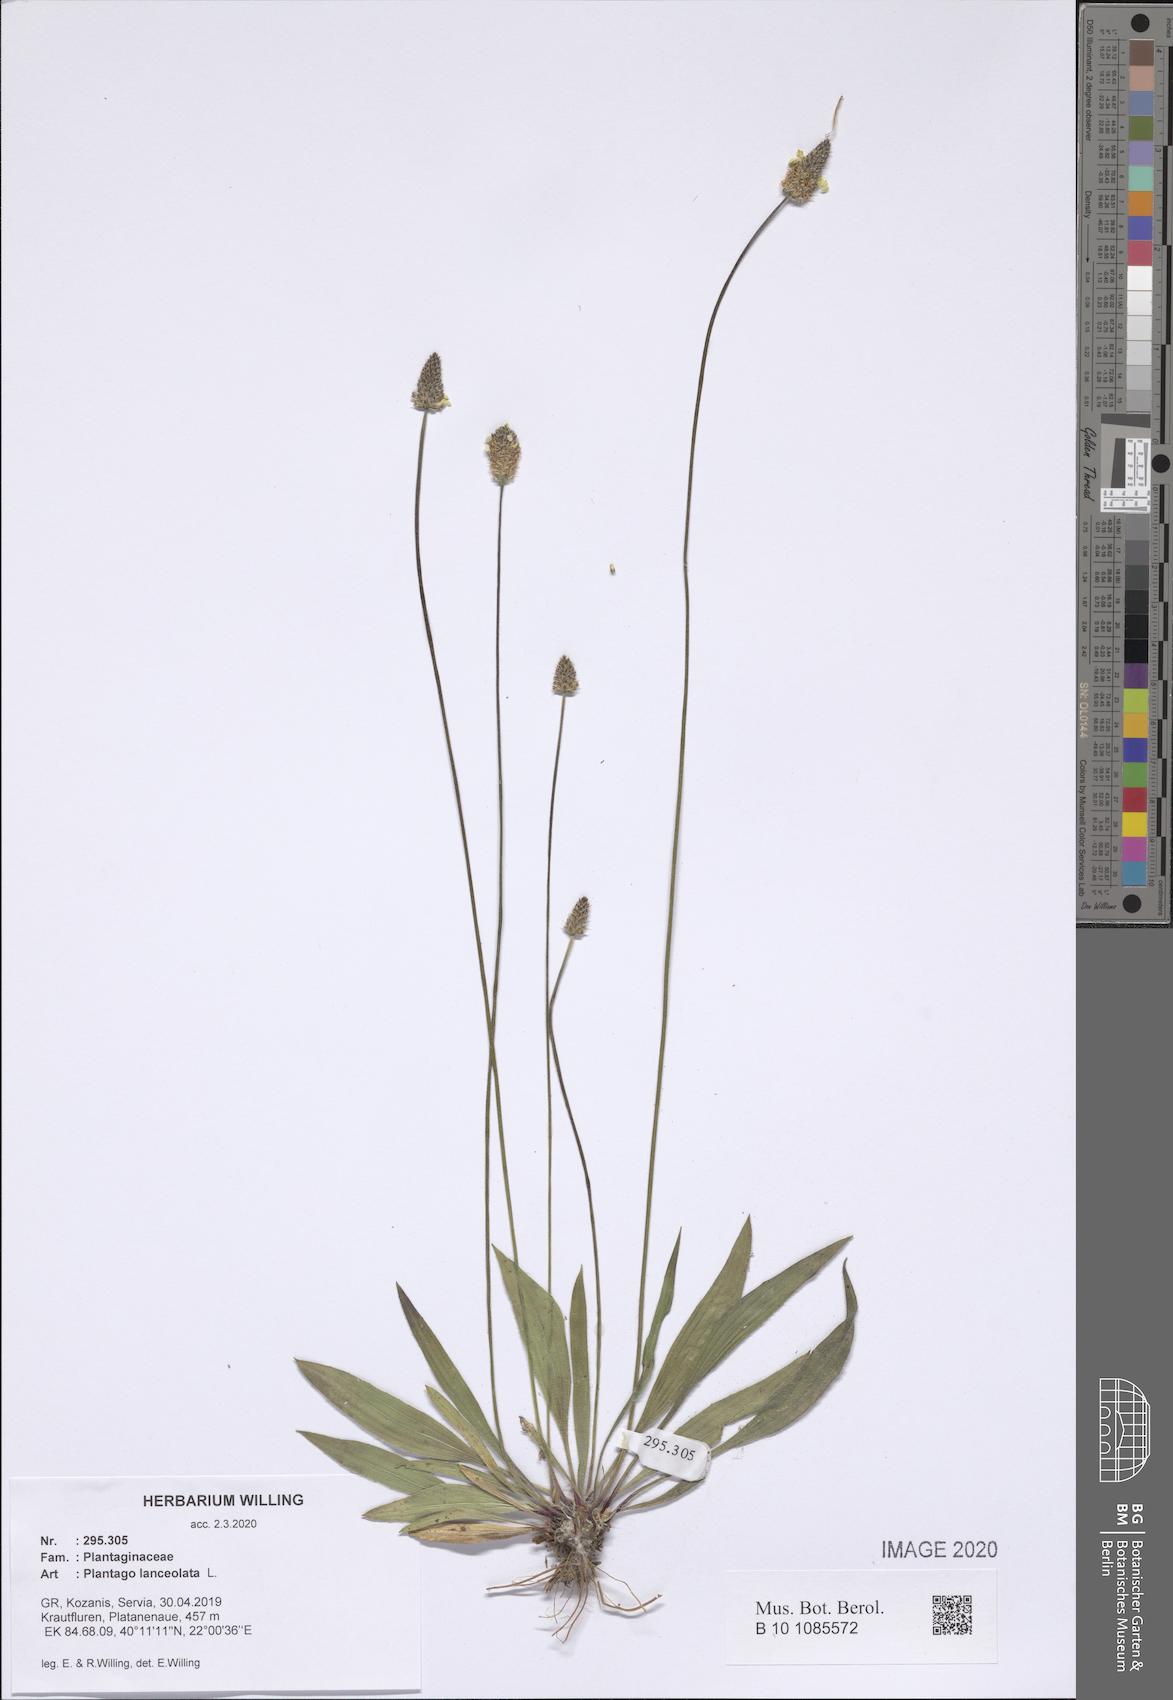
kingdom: Plantae
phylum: Tracheophyta
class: Magnoliopsida
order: Lamiales
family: Plantaginaceae
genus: Plantago
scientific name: Plantago lanceolata
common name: Ribwort plantain
